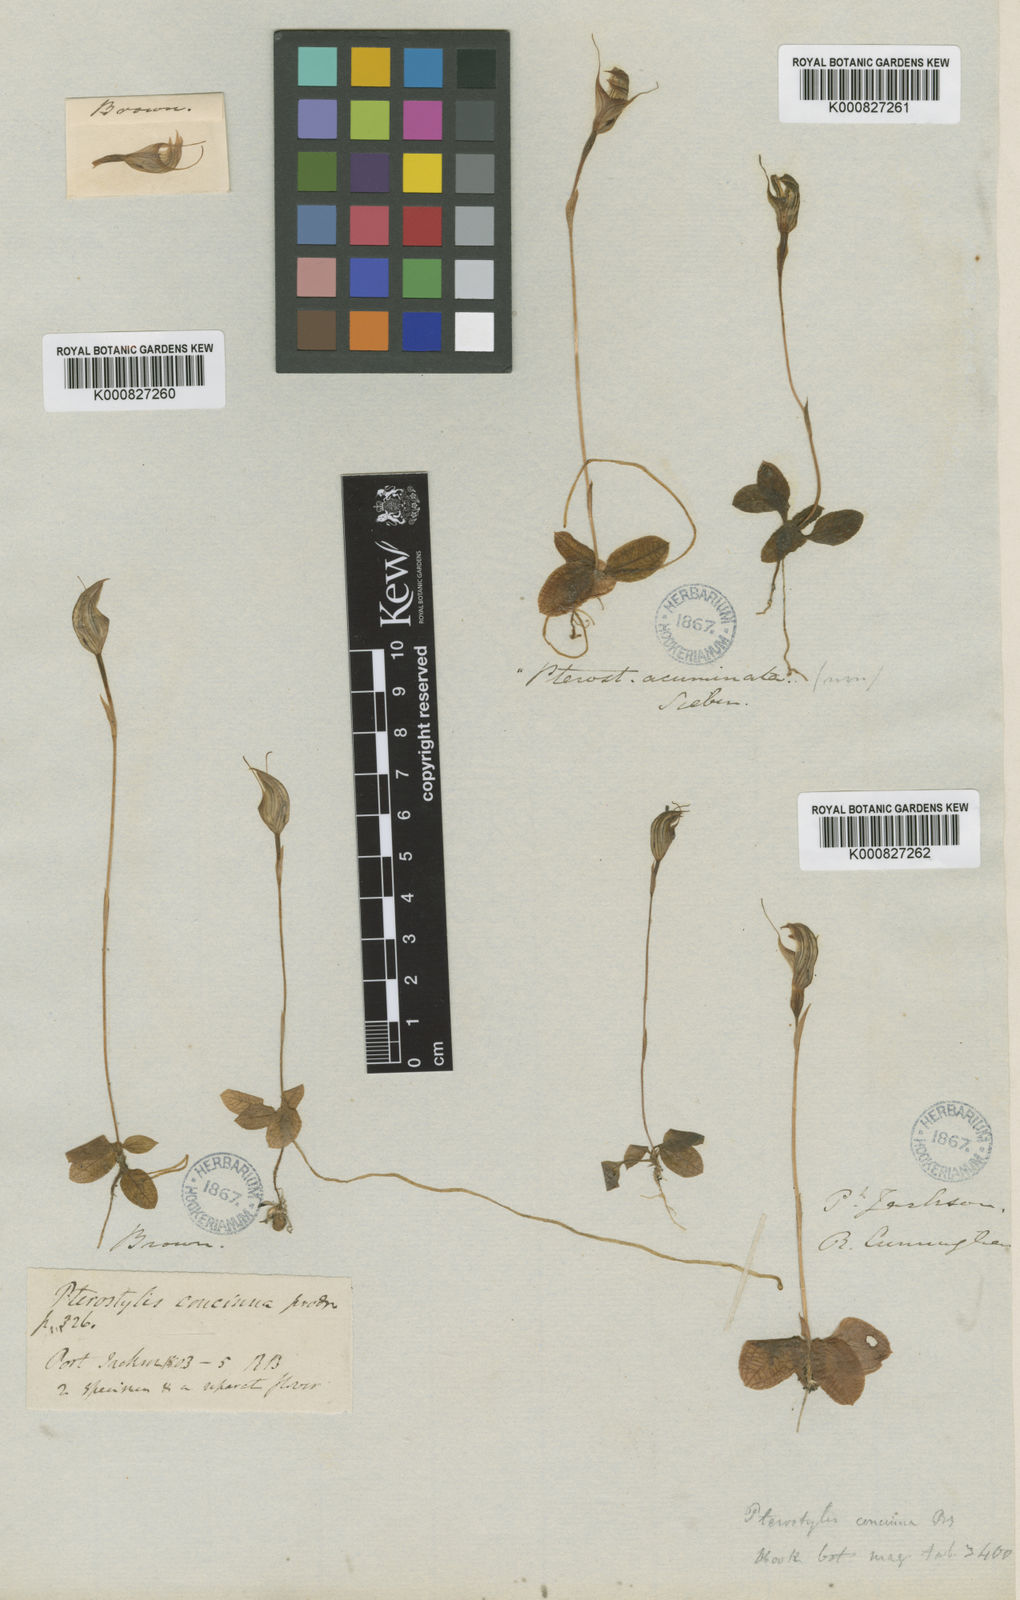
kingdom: Plantae
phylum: Tracheophyta
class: Liliopsida
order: Asparagales
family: Orchidaceae
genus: Pterostylis
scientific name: Pterostylis concinna
